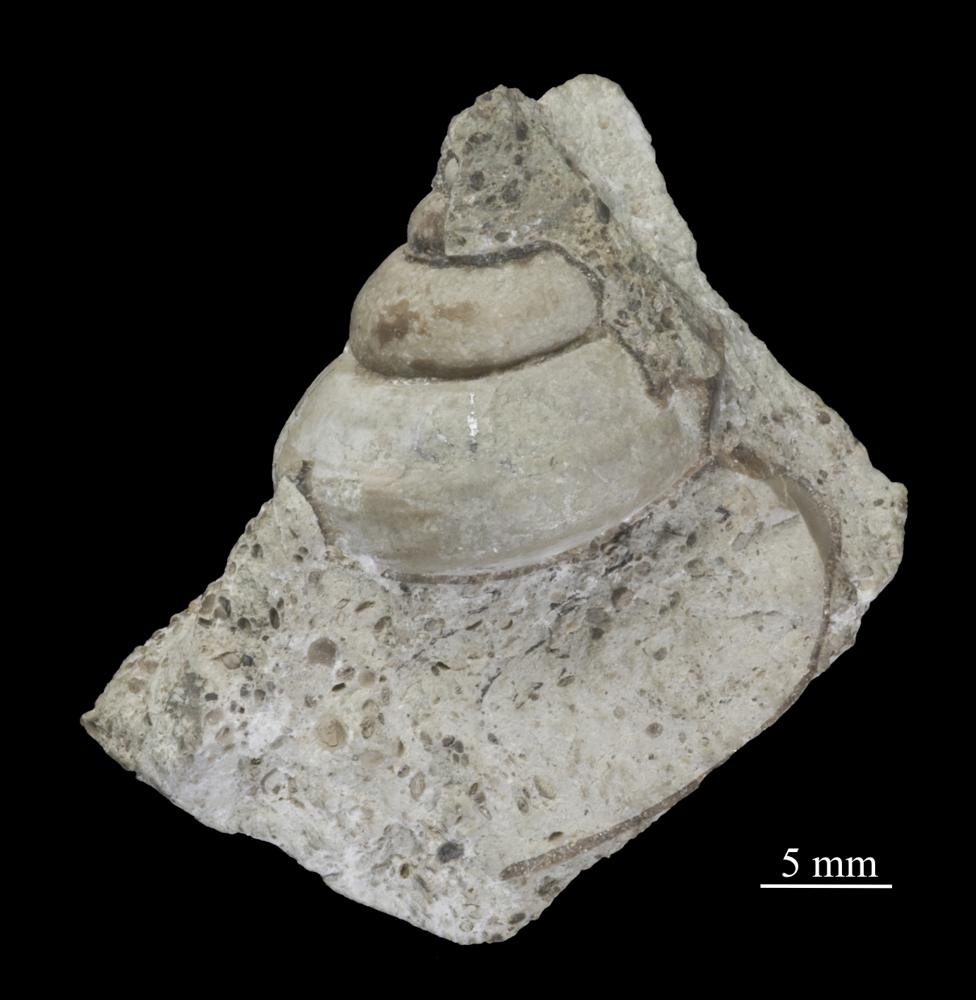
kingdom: Animalia
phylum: Mollusca
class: Gastropoda
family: Lophospiridae
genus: Lophospira
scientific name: Lophospira Worthenia mickwitzi
